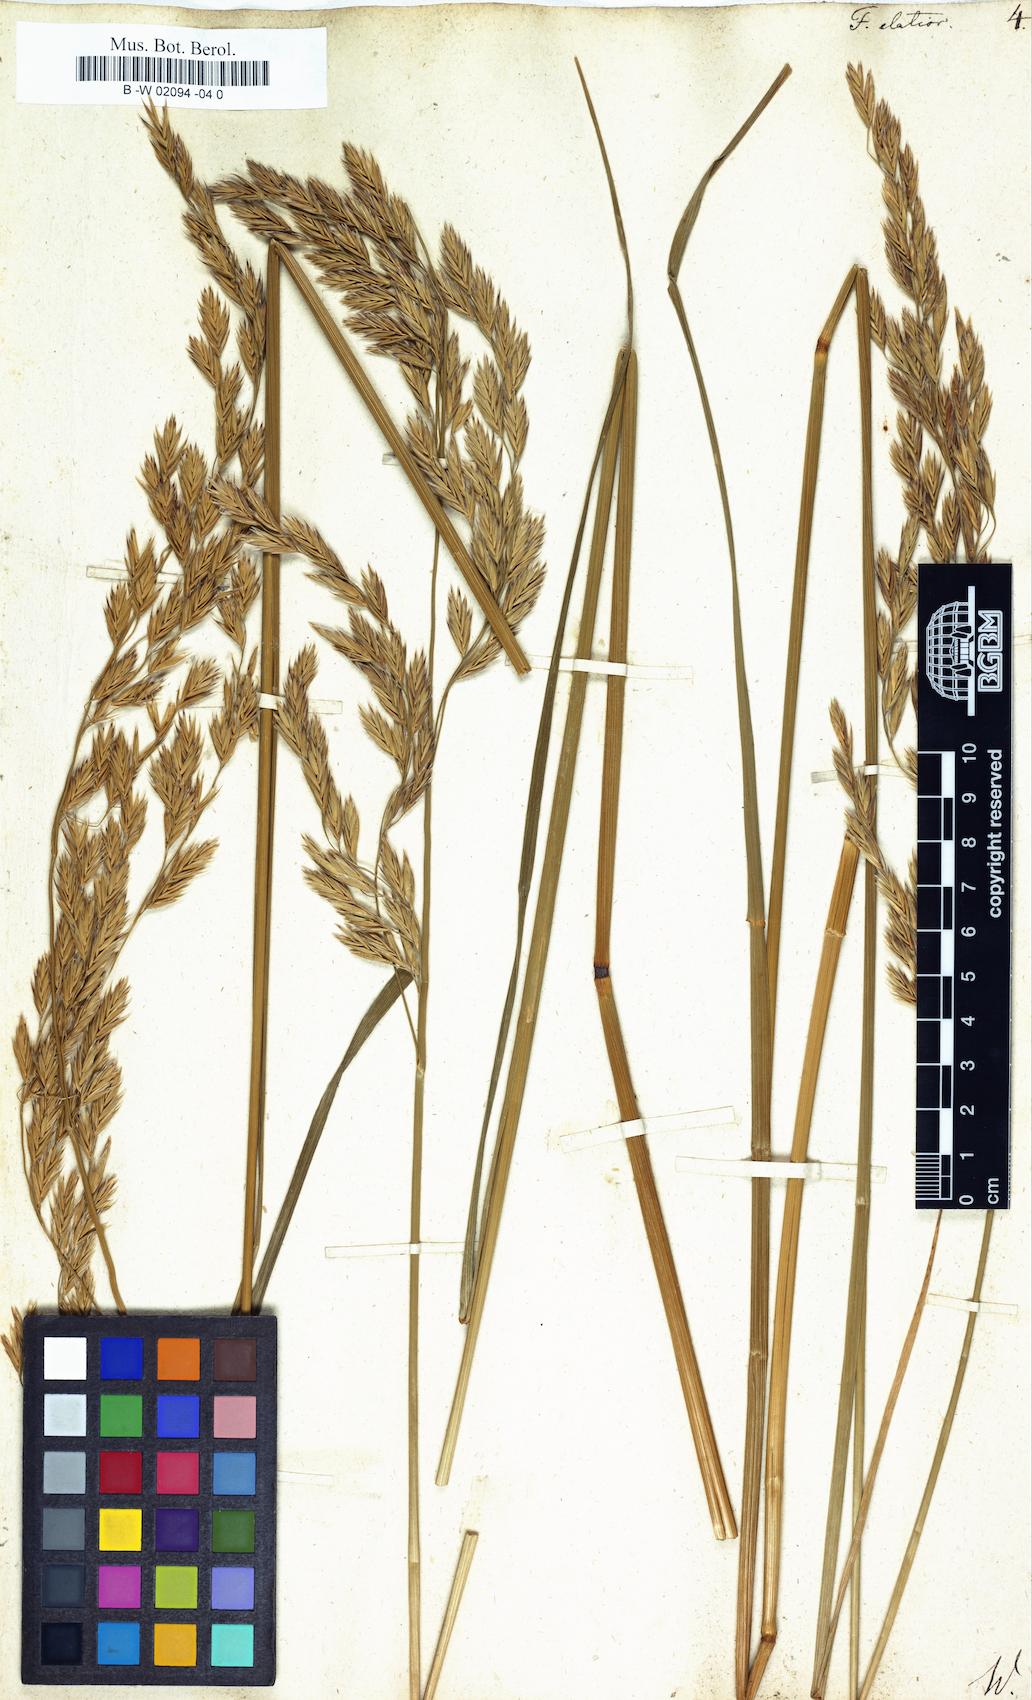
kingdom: Plantae
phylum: Tracheophyta
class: Liliopsida
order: Poales
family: Poaceae
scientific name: Poaceae
